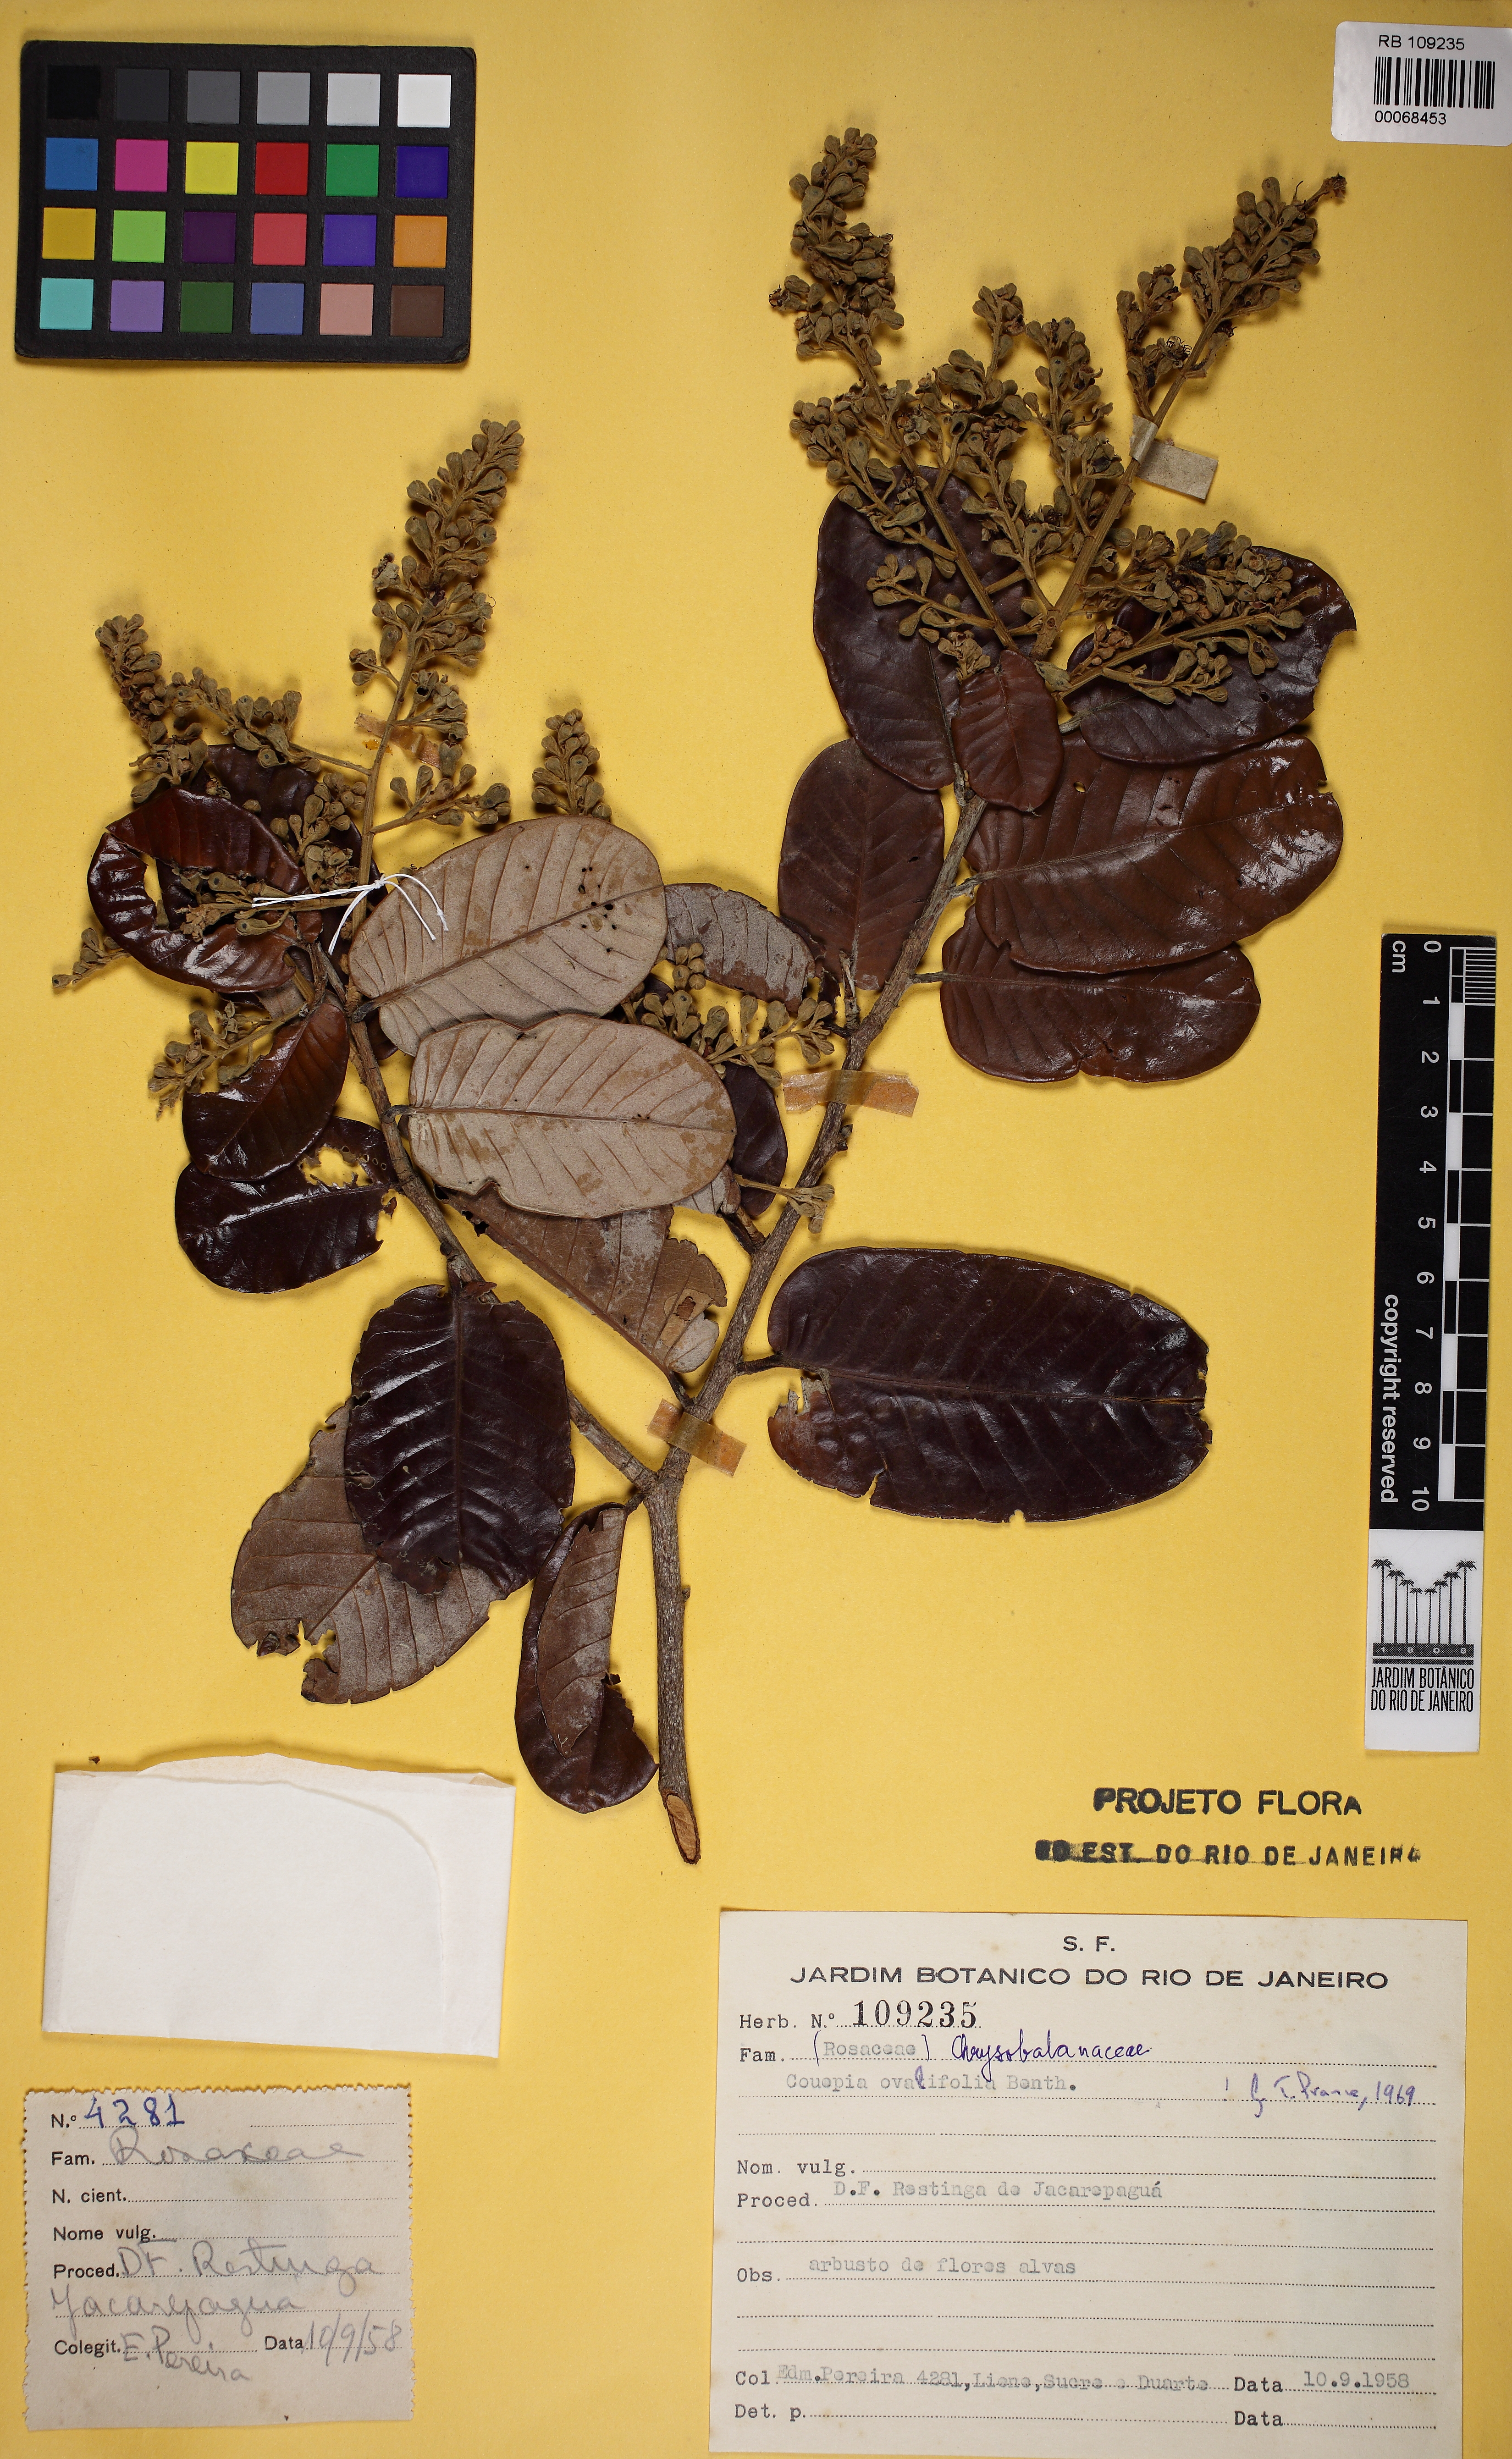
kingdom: Plantae
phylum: Tracheophyta
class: Magnoliopsida
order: Malpighiales
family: Chrysobalanaceae
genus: Couepia
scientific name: Couepia ovalifolia
